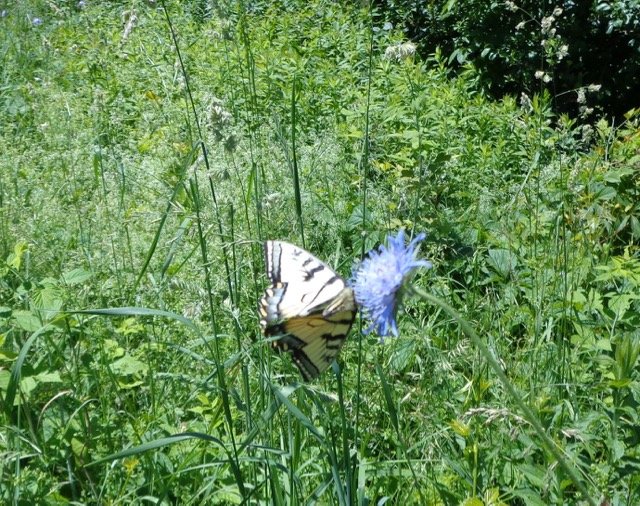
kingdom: Animalia
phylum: Arthropoda
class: Insecta
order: Lepidoptera
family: Papilionidae
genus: Pterourus
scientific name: Pterourus canadensis
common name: Canadian Tiger Swallowtail
